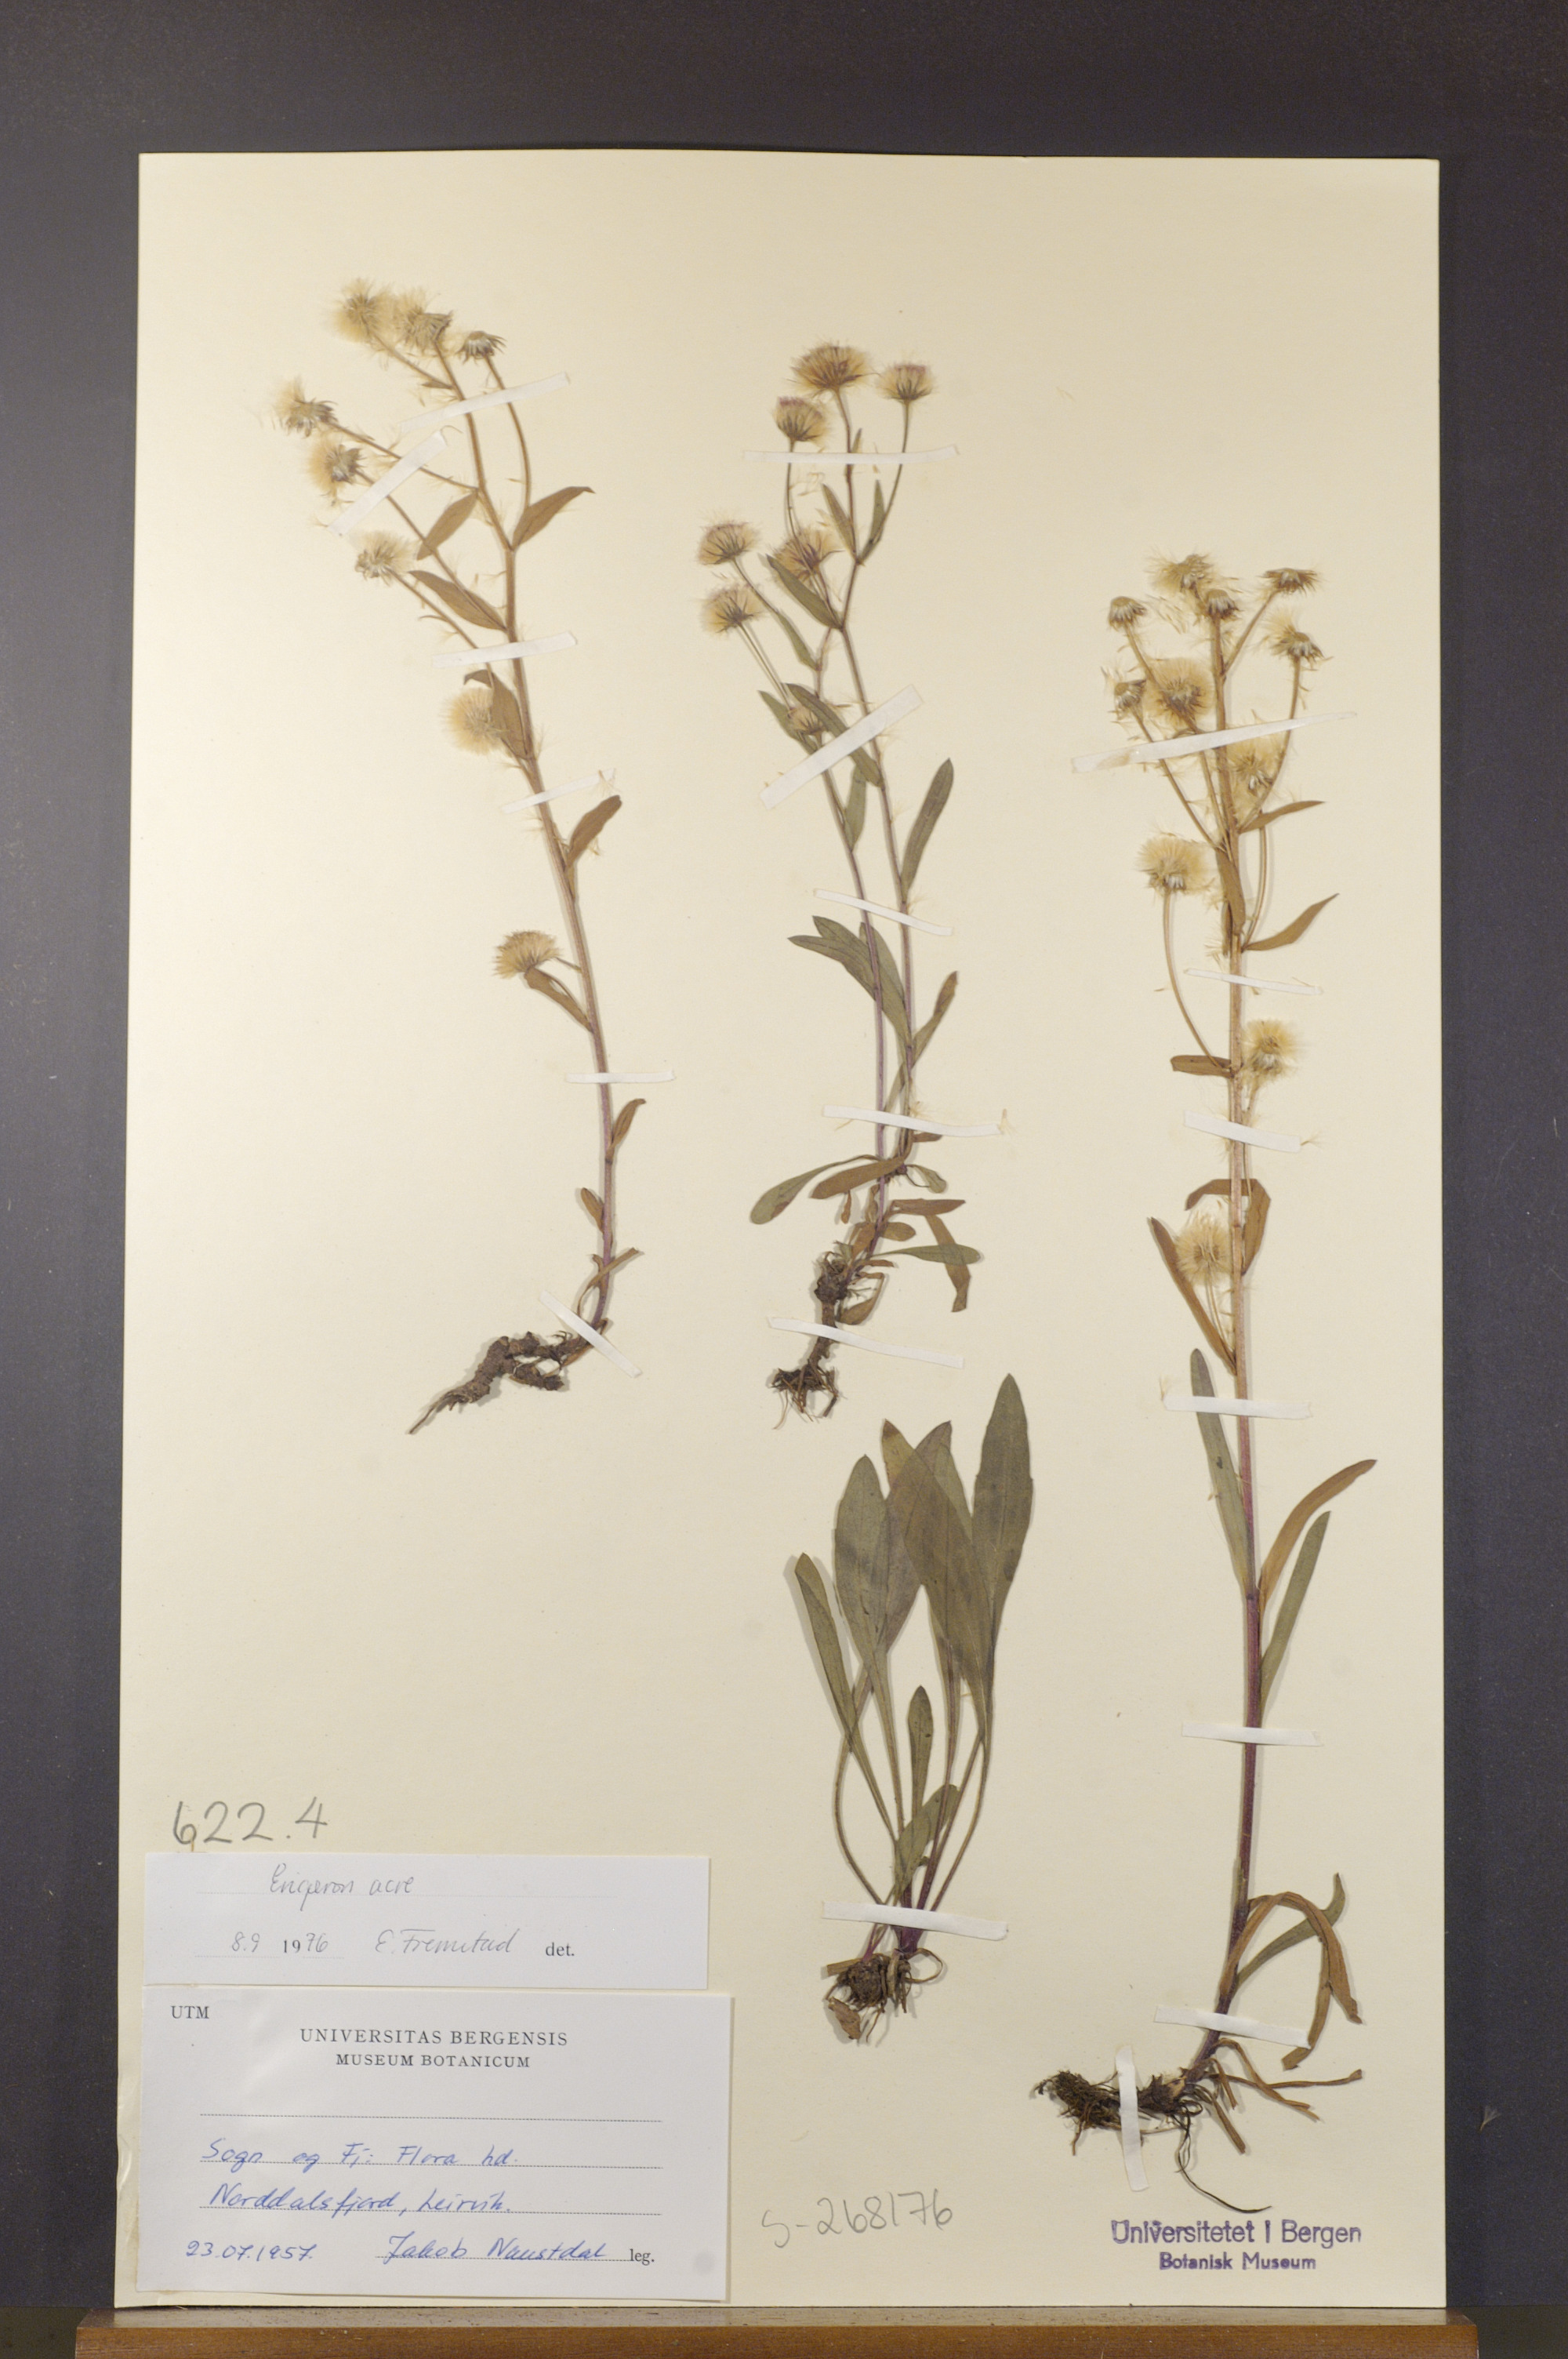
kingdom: Plantae
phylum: Tracheophyta
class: Magnoliopsida
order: Asterales
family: Asteraceae
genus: Erigeron
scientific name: Erigeron acris
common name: Blue fleabane
